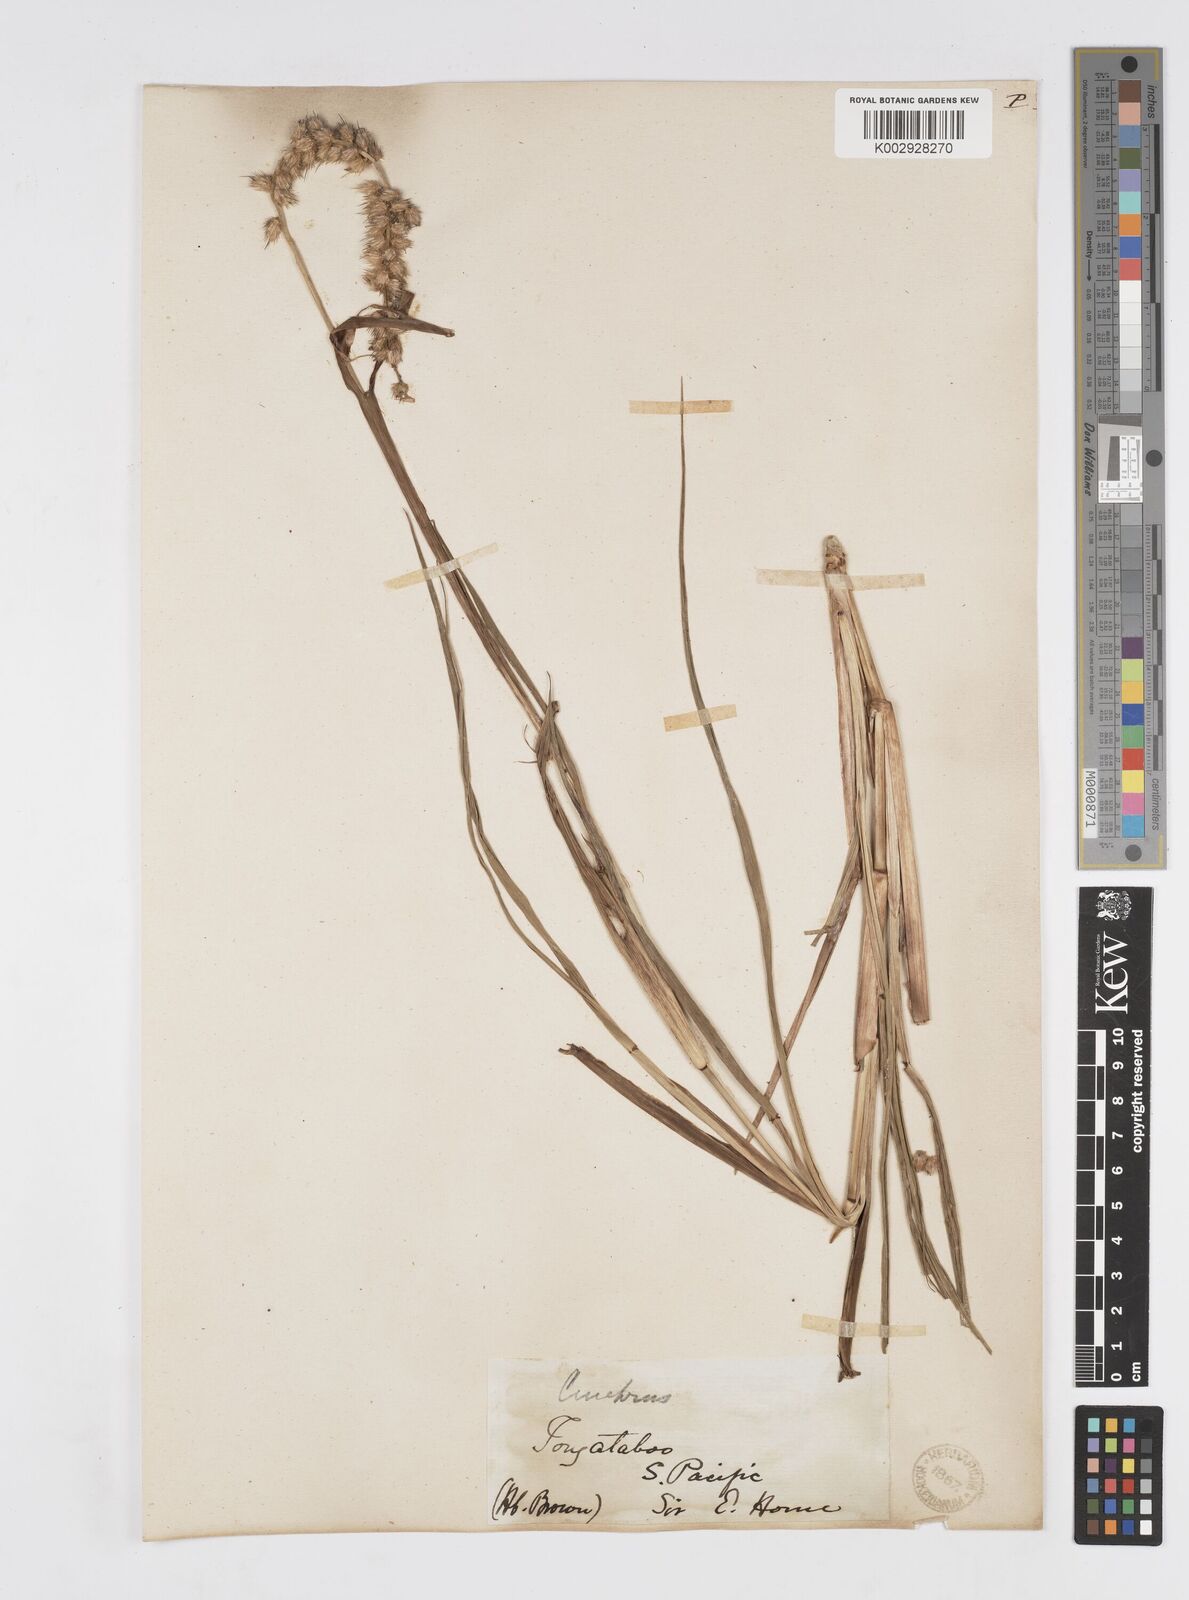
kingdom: Plantae
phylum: Tracheophyta
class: Liliopsida
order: Poales
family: Poaceae
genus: Cenchrus
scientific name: Cenchrus caliculatus
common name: Large bur grass
